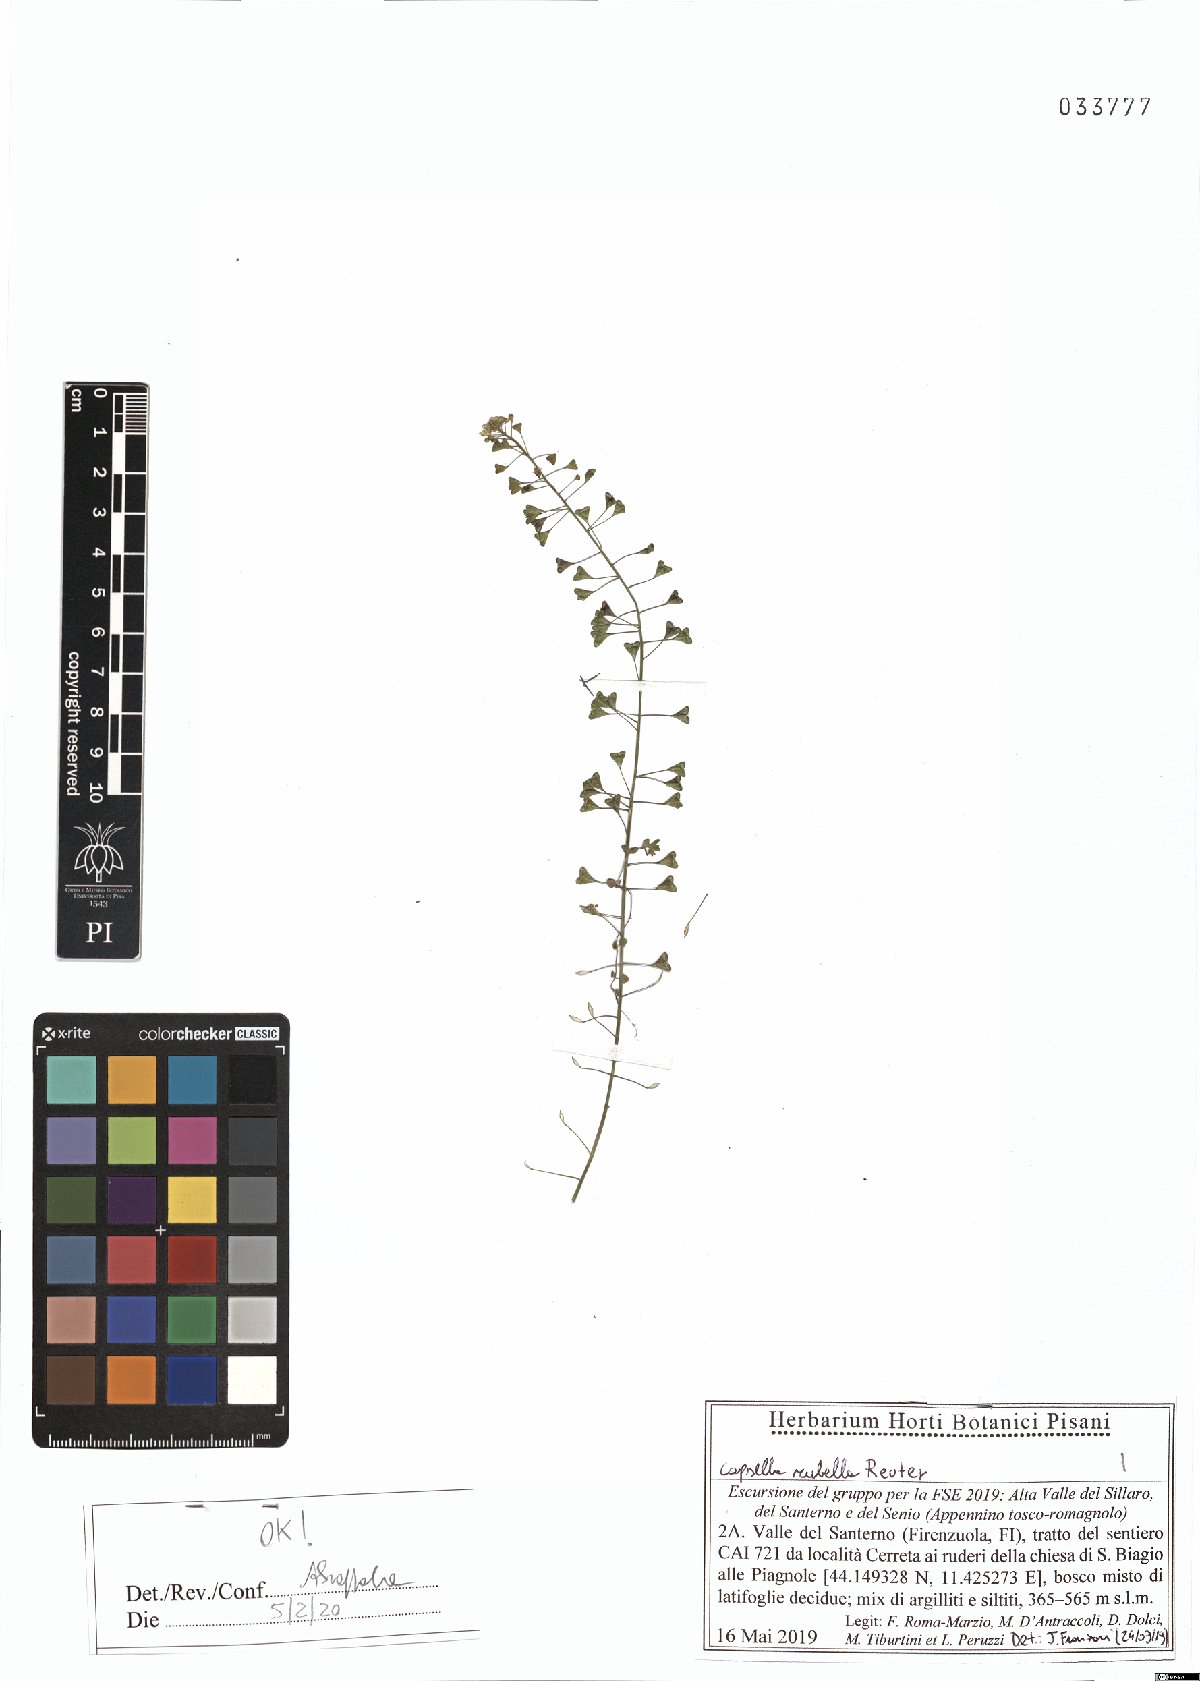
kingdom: Plantae
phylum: Tracheophyta
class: Magnoliopsida
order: Brassicales
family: Brassicaceae
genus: Capsella
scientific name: Capsella rubella
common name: Pink shepherd's-purse
